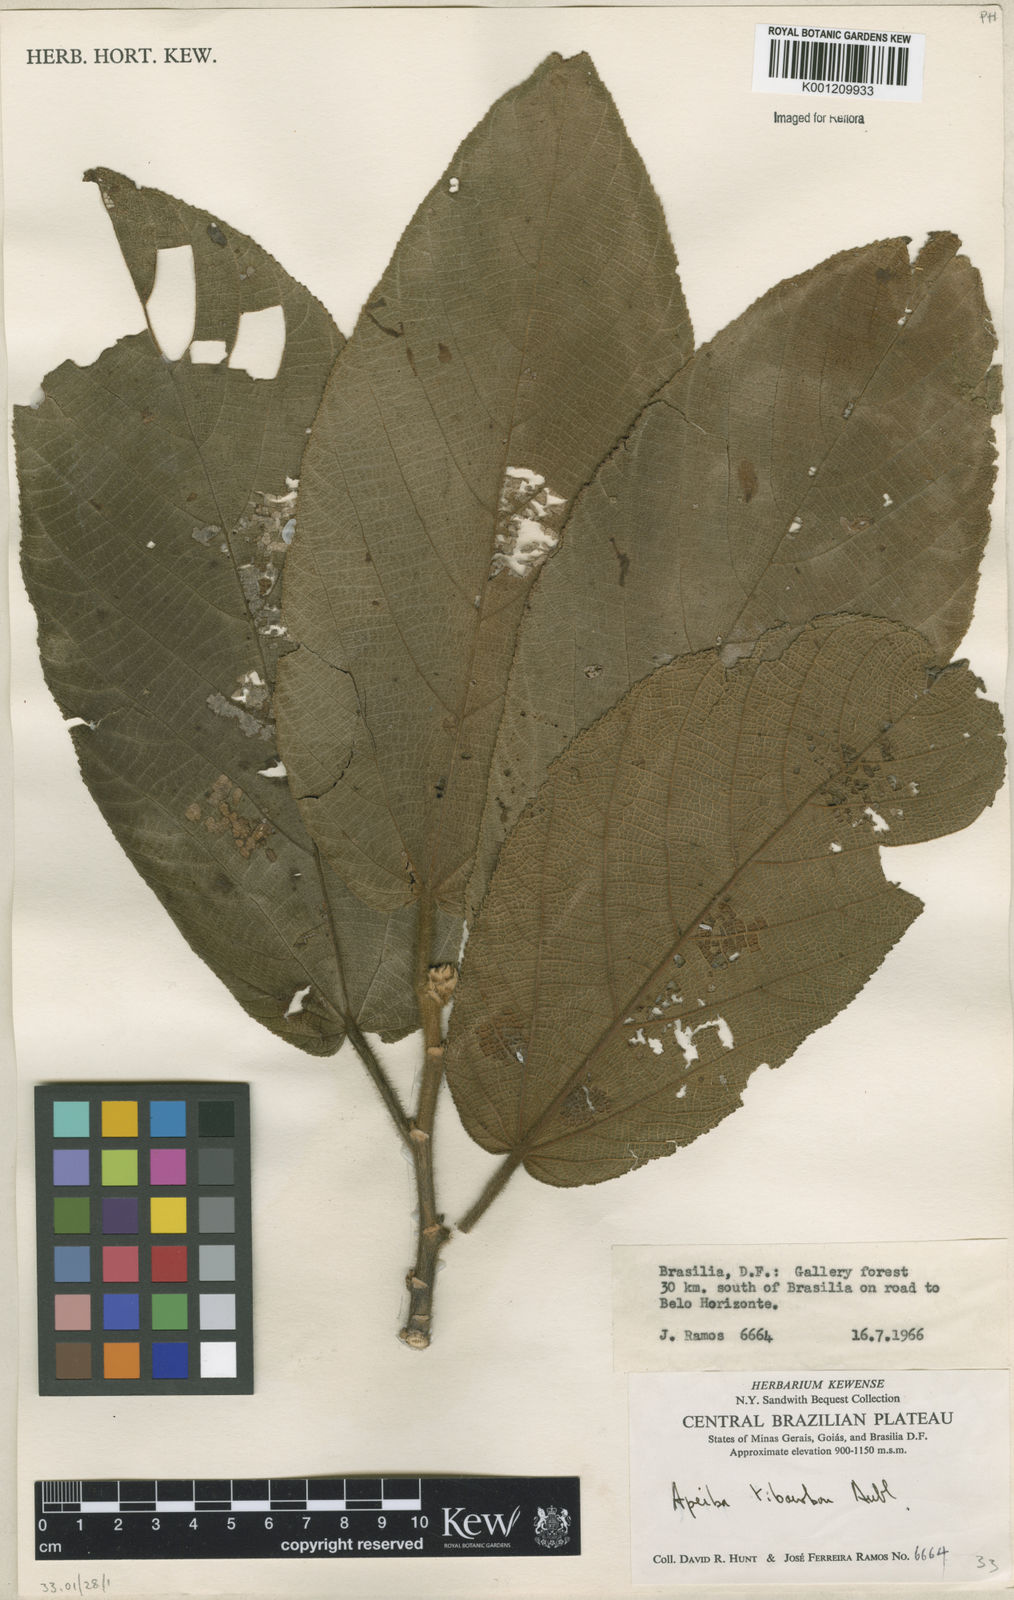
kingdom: Plantae
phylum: Tracheophyta
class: Magnoliopsida
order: Malvales
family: Malvaceae
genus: Apeiba
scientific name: Apeiba tibourbou
